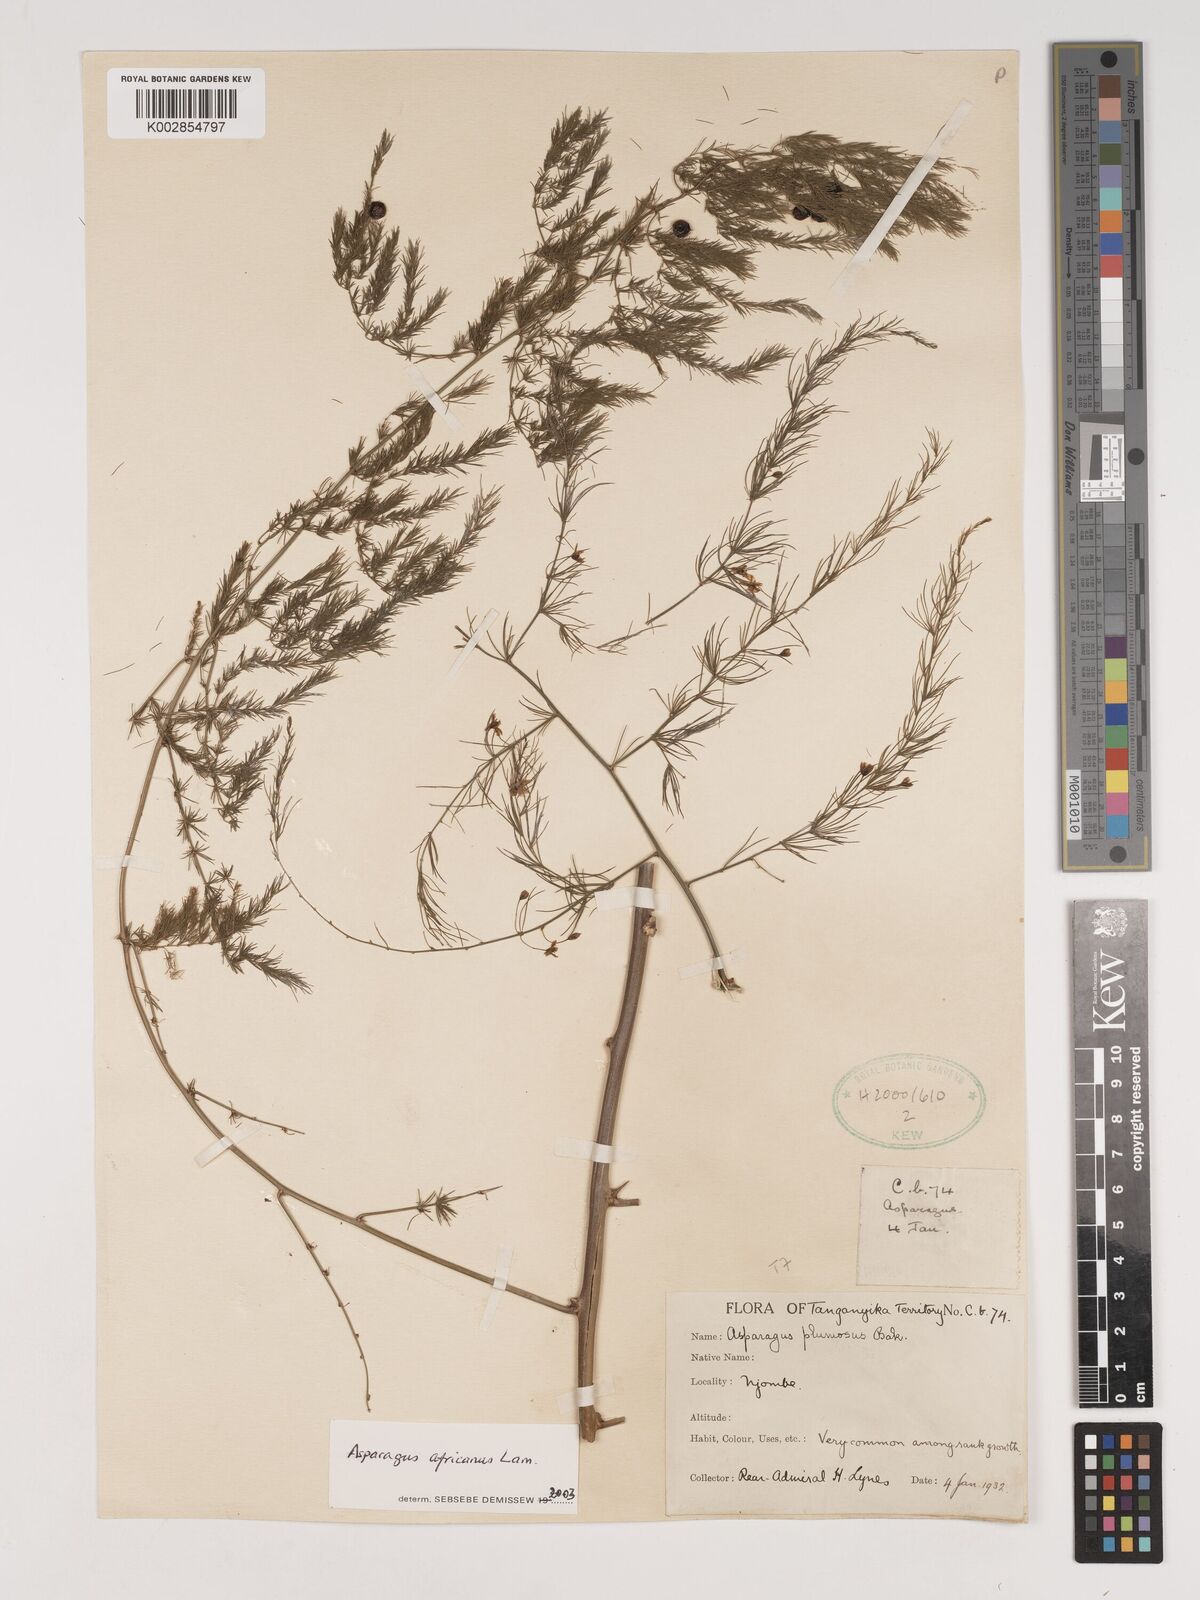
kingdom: Plantae
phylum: Tracheophyta
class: Liliopsida
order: Asparagales
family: Asparagaceae
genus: Asparagus
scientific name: Asparagus africanus
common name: Asparagus-fern
